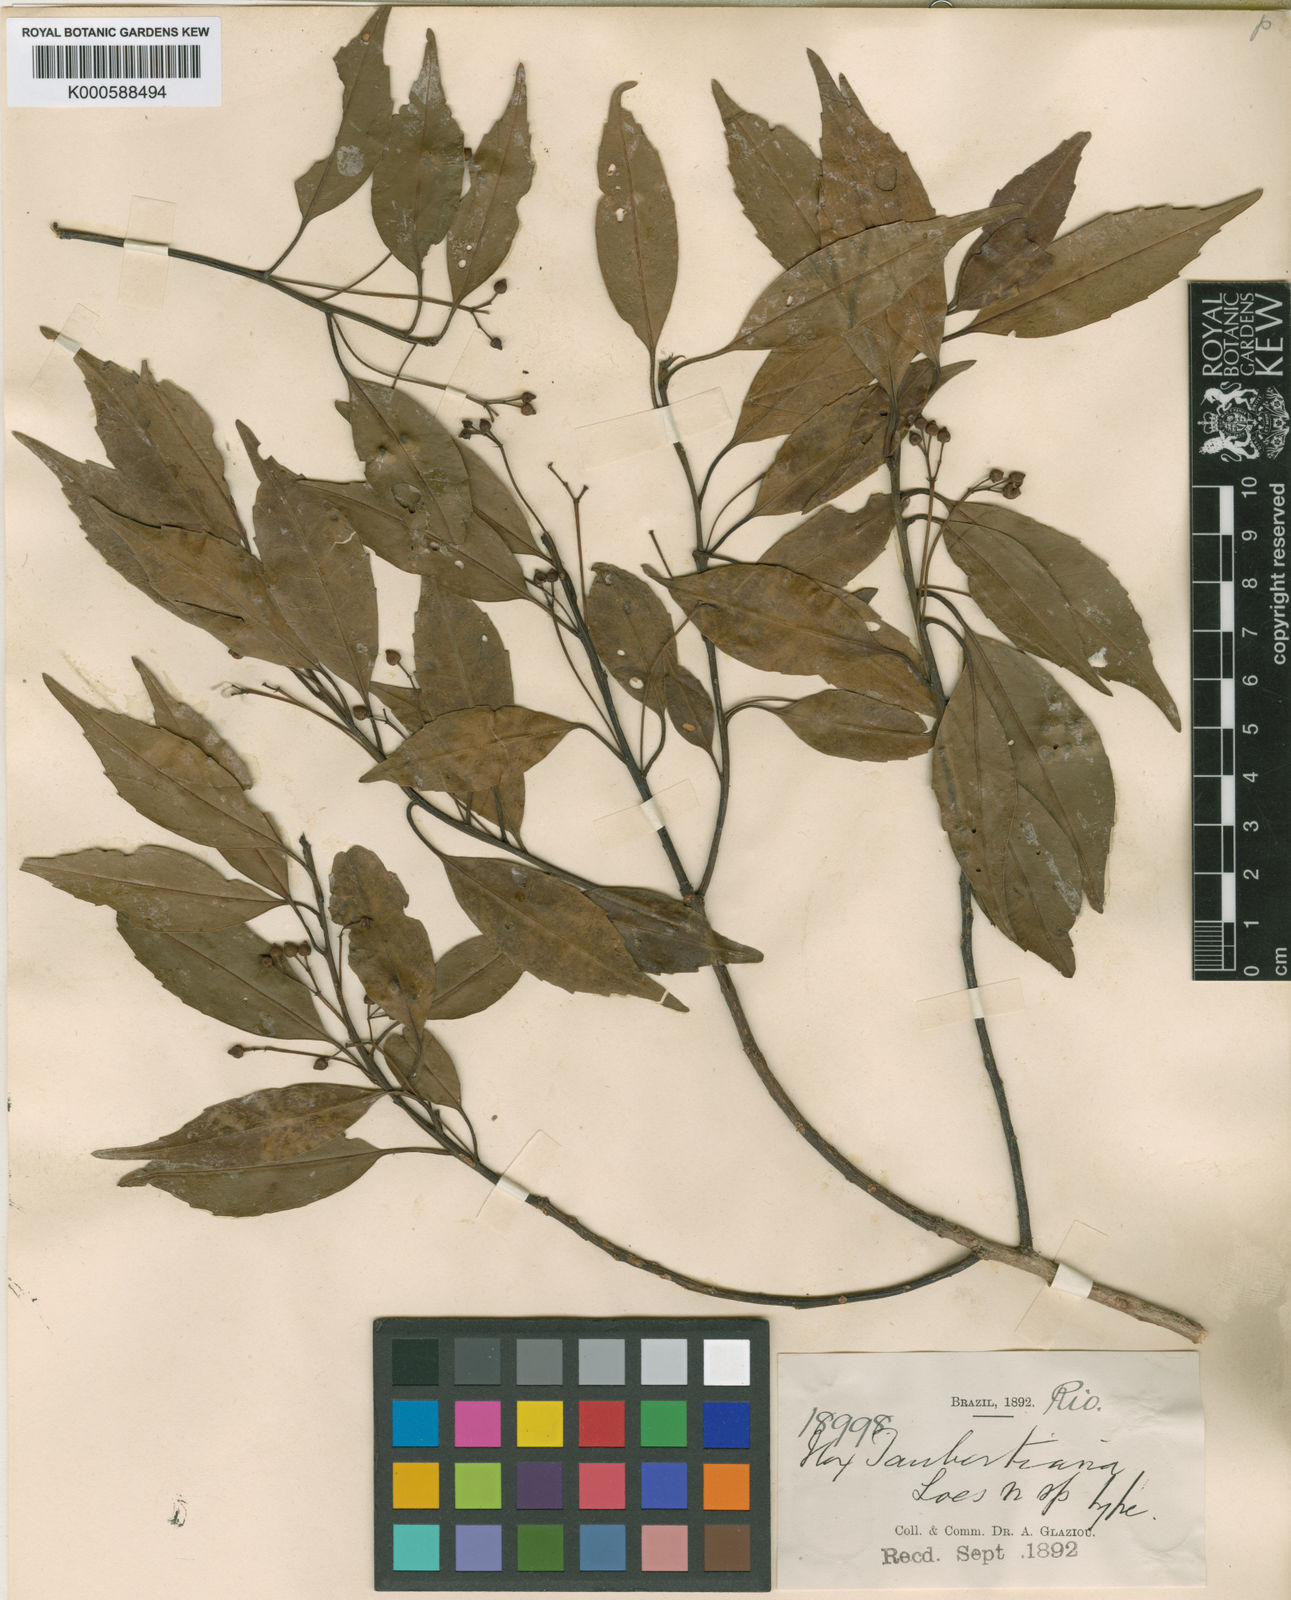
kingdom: Plantae
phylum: Tracheophyta
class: Magnoliopsida
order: Aquifoliales
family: Aquifoliaceae
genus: Ilex
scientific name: Ilex taubertiana
